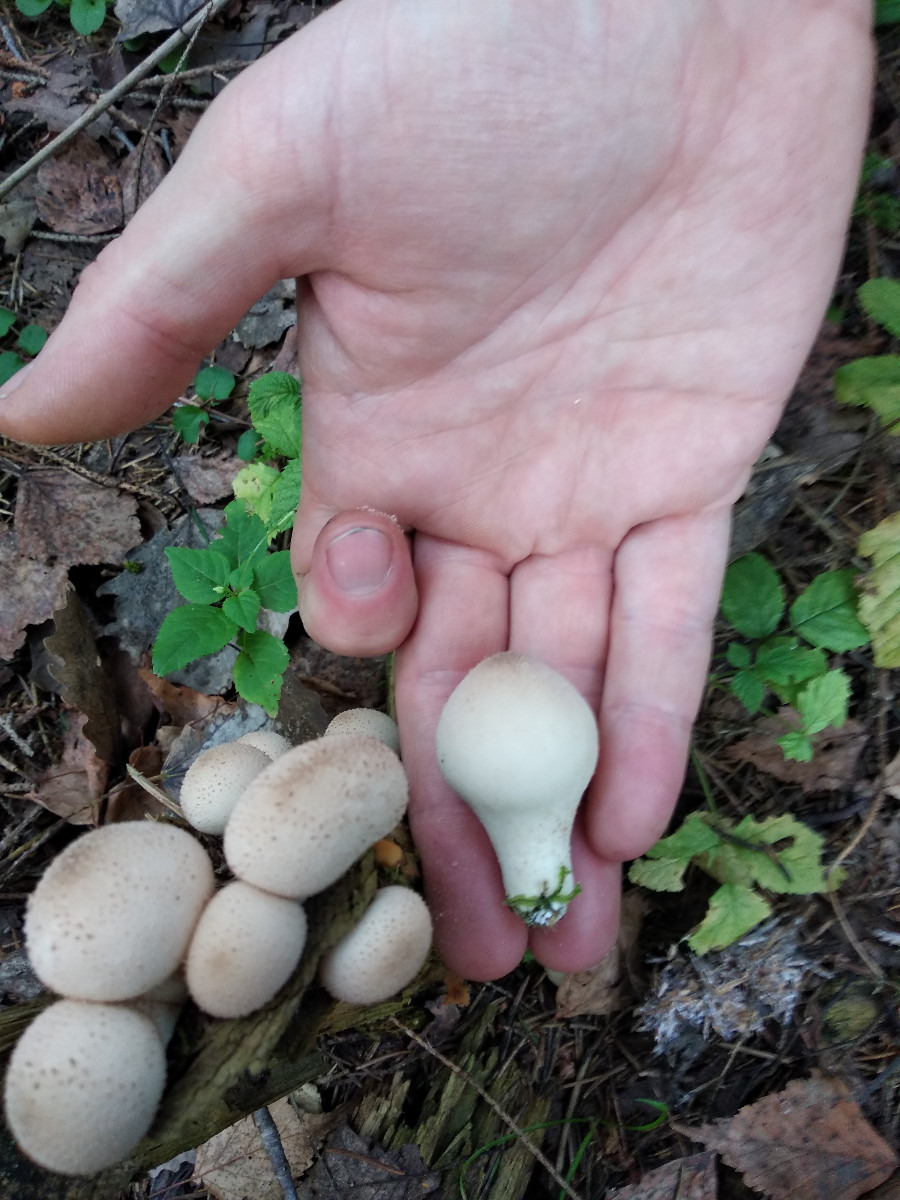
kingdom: Fungi
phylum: Basidiomycota
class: Agaricomycetes
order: Agaricales
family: Lycoperdaceae
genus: Apioperdon
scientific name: Apioperdon pyriforme
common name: pære-støvbold
